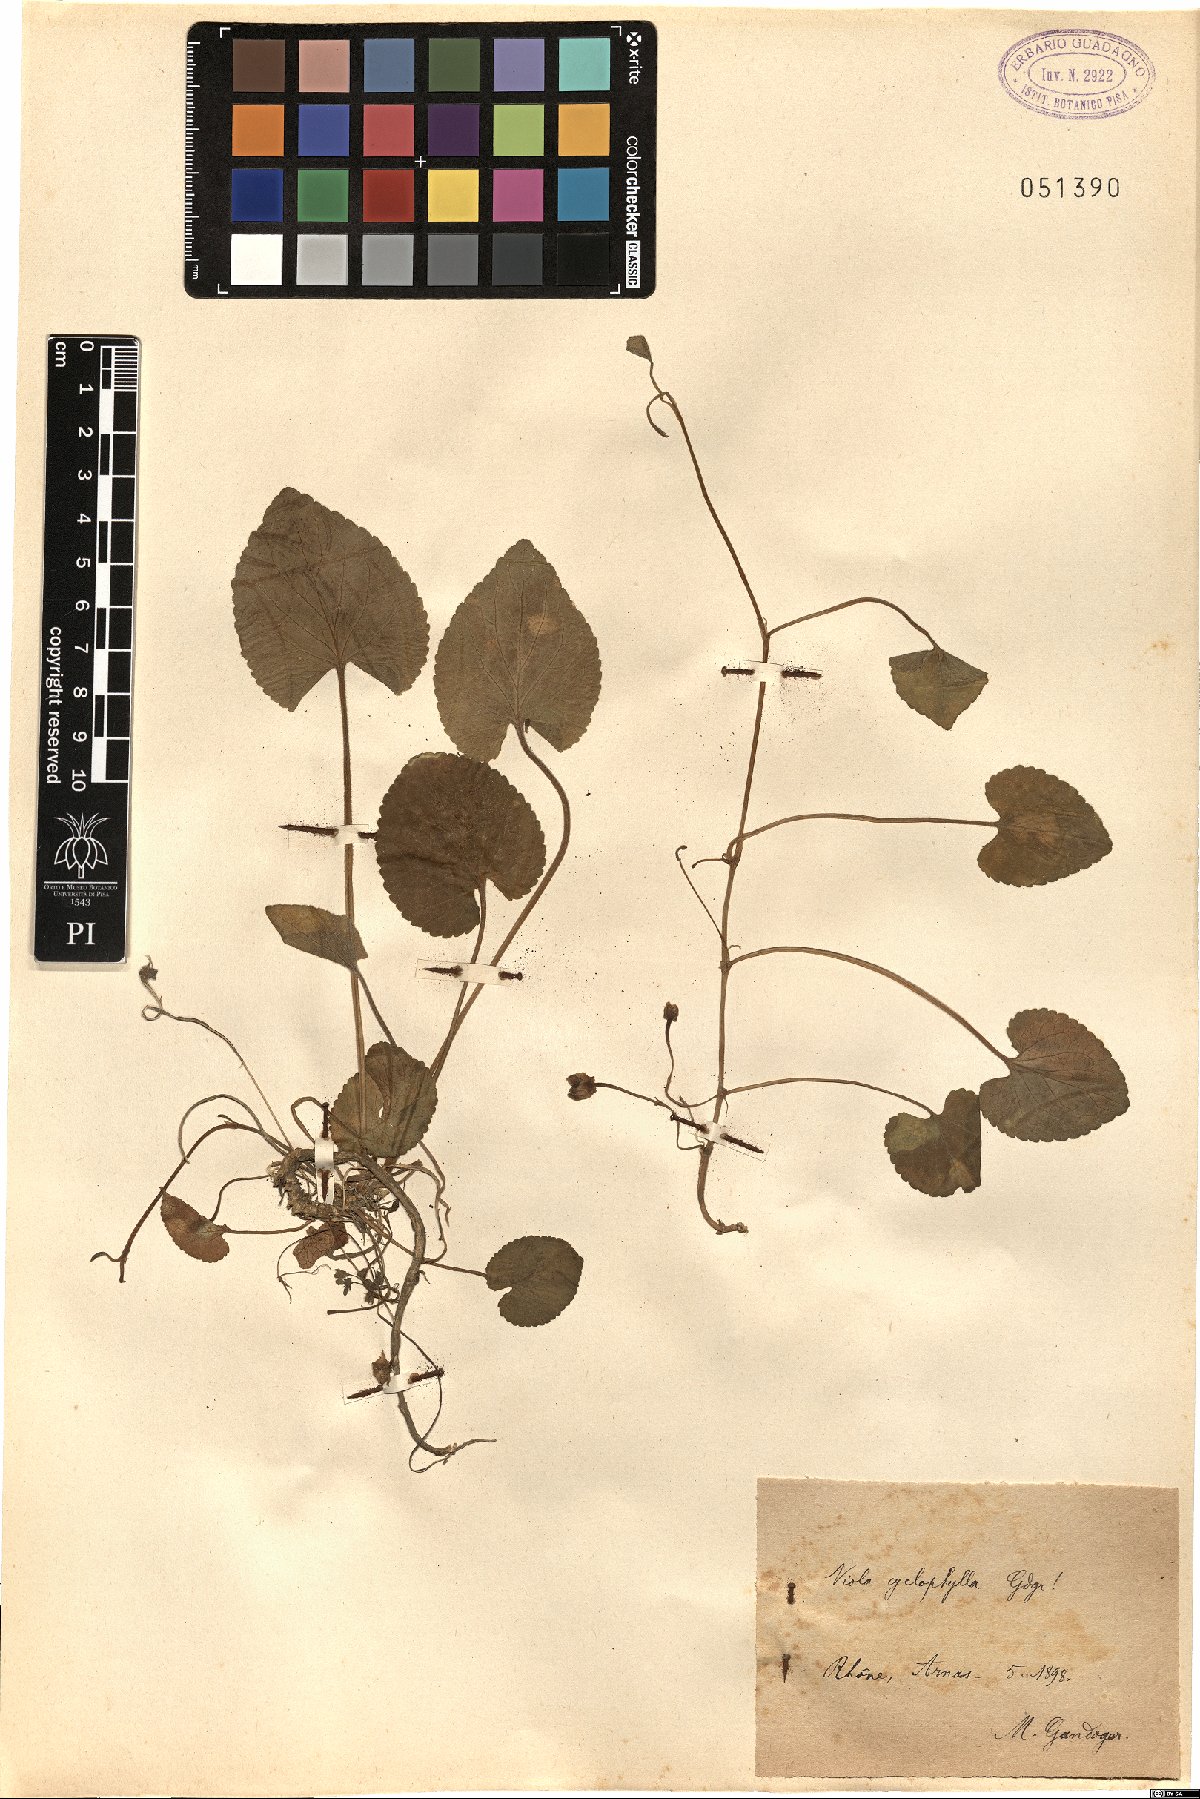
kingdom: Plantae
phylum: Tracheophyta
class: Magnoliopsida
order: Malpighiales
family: Violaceae
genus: Viola
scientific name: Viola odorata
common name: Sweet violet
